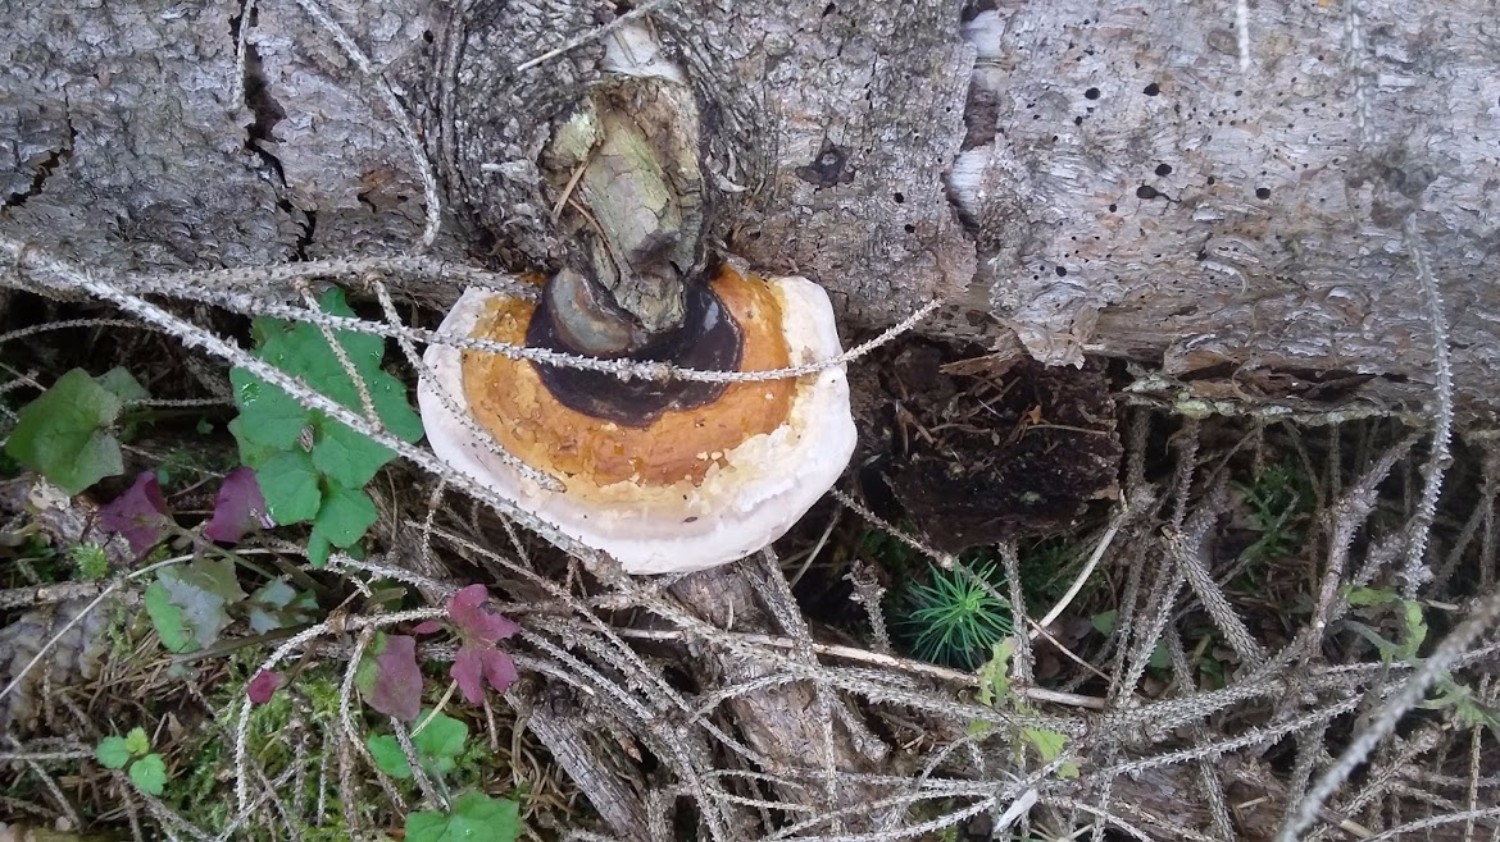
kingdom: Fungi
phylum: Basidiomycota
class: Agaricomycetes
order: Polyporales
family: Fomitopsidaceae
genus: Fomitopsis
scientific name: Fomitopsis pinicola
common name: randbæltet hovporesvamp
